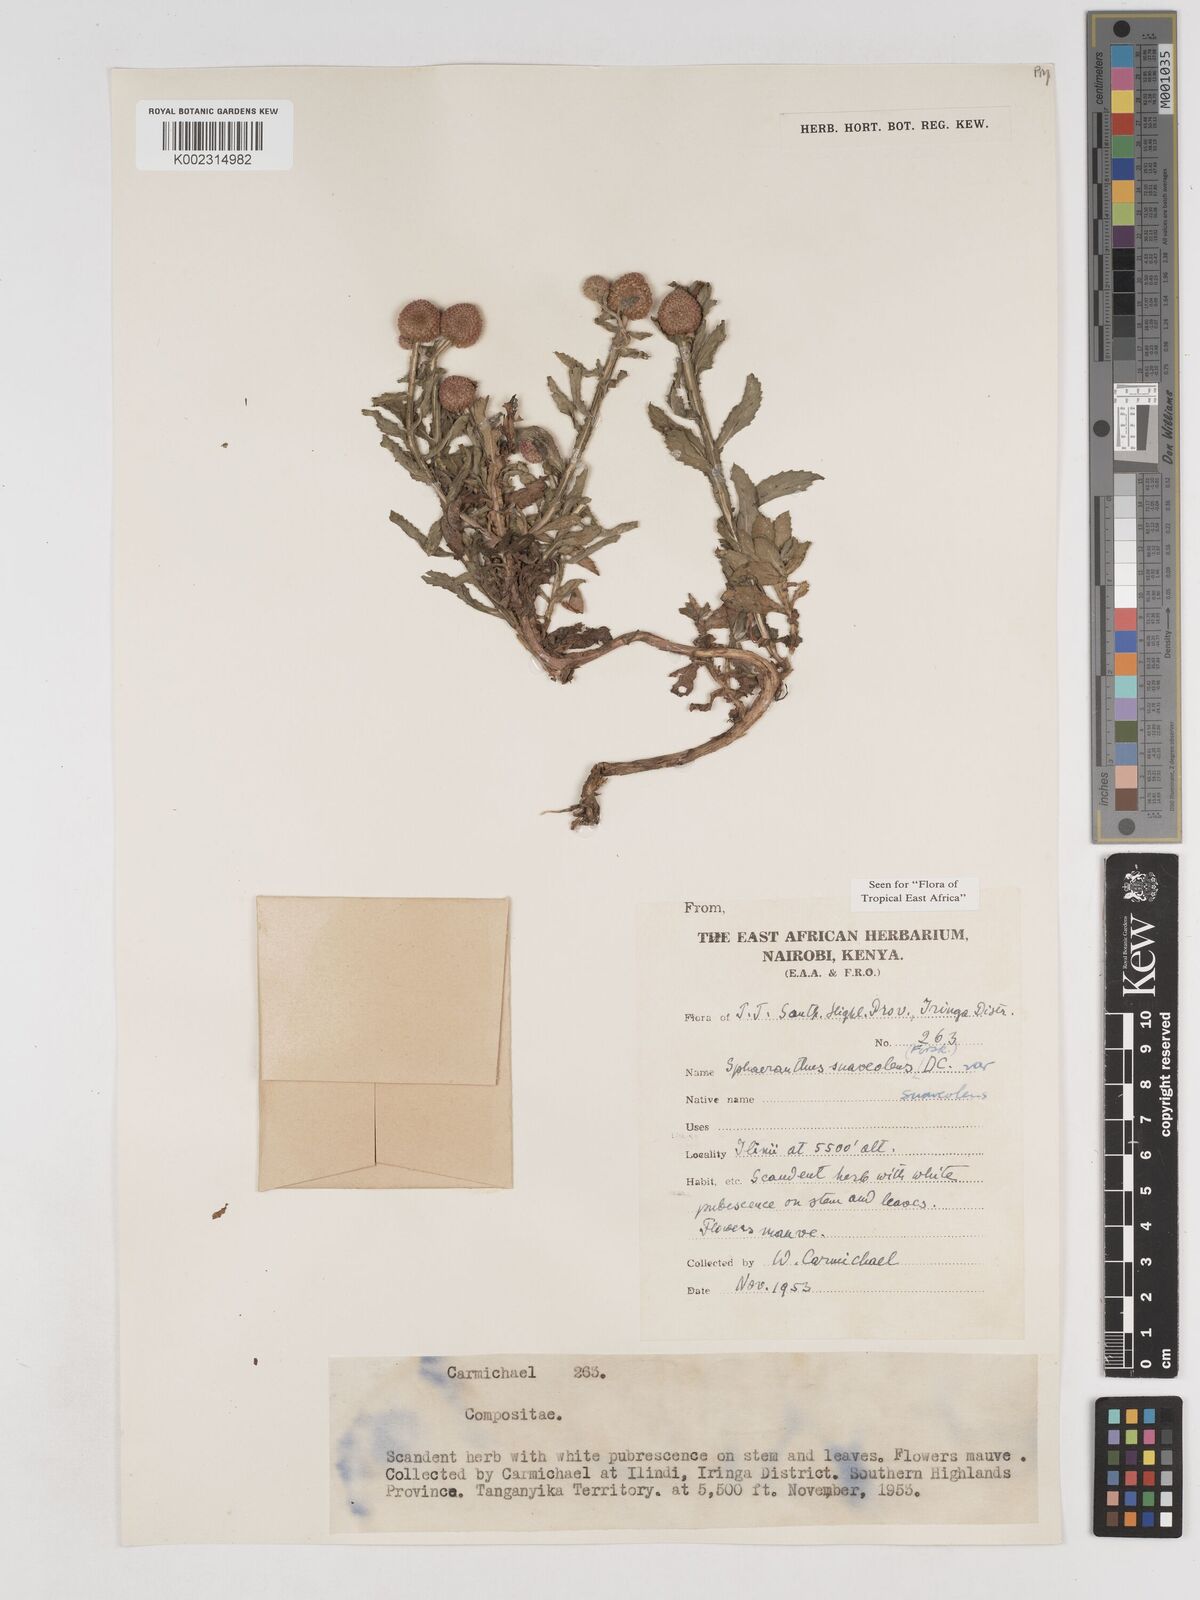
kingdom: Plantae
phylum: Tracheophyta
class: Magnoliopsida
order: Asterales
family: Asteraceae
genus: Sphaeranthus
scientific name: Sphaeranthus suaveolens
